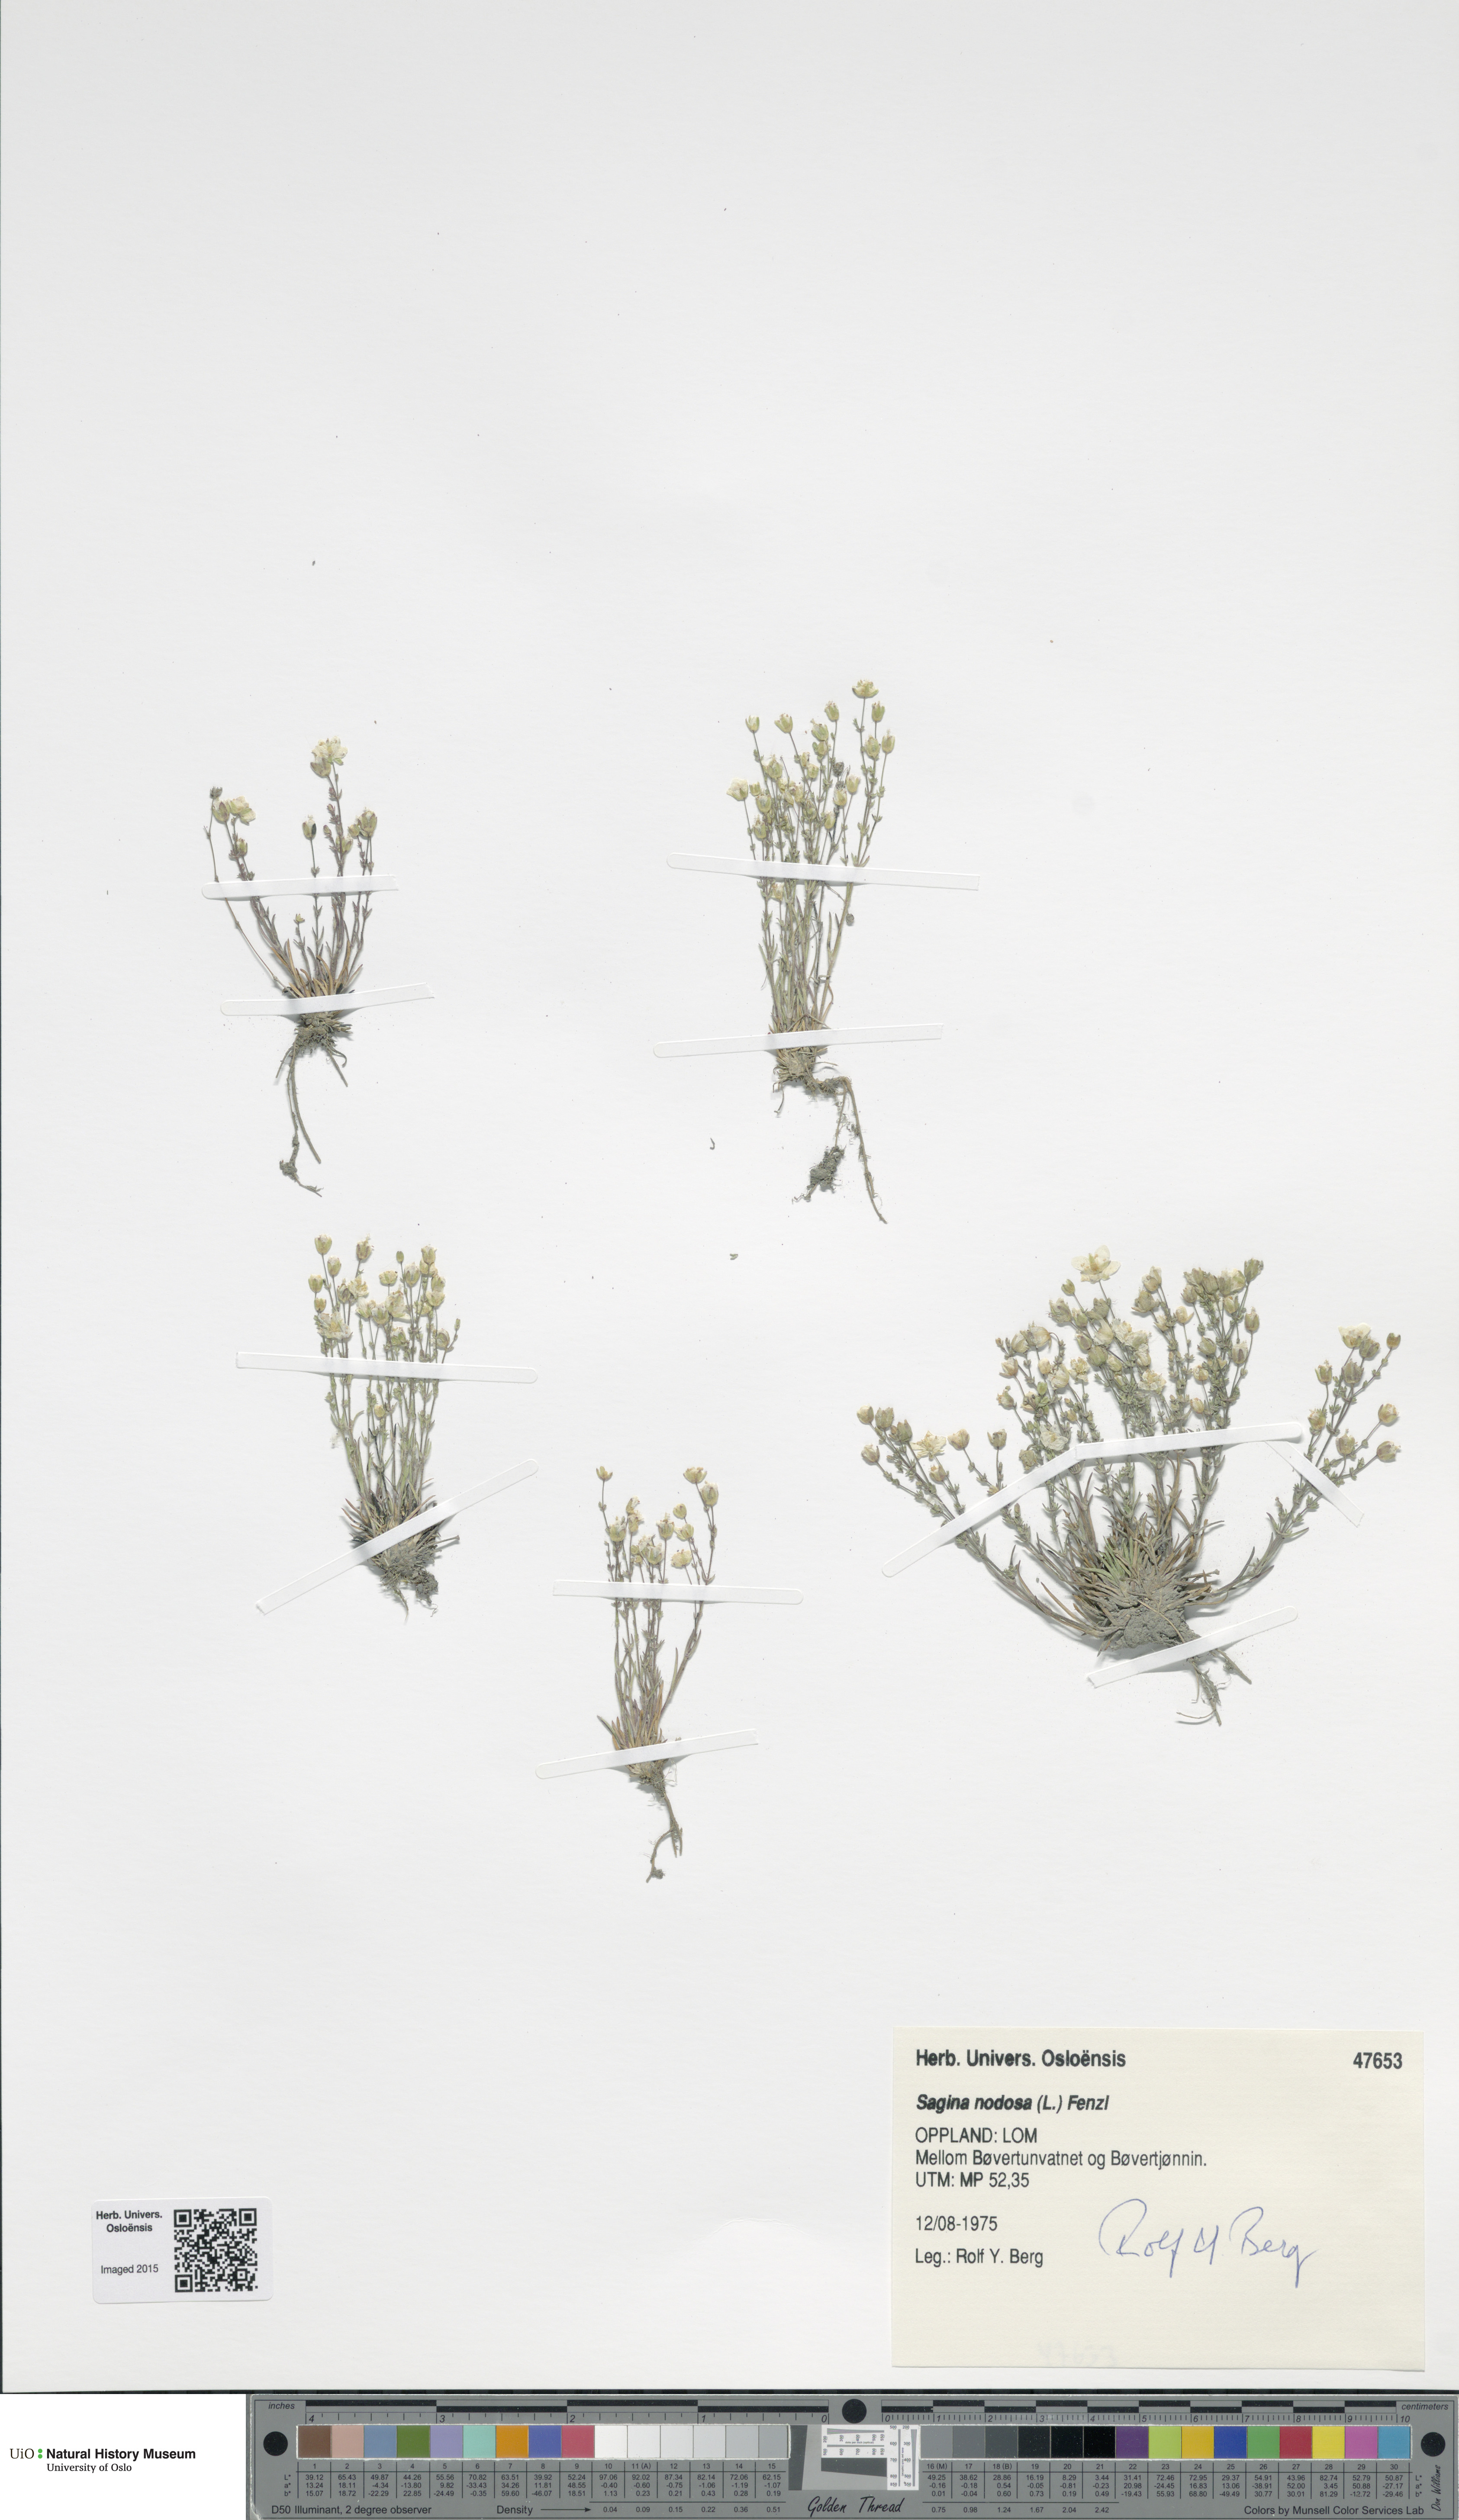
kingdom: Plantae
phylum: Tracheophyta
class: Magnoliopsida
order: Caryophyllales
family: Caryophyllaceae
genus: Sagina
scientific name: Sagina nodosa
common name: Knotted pearlwort
